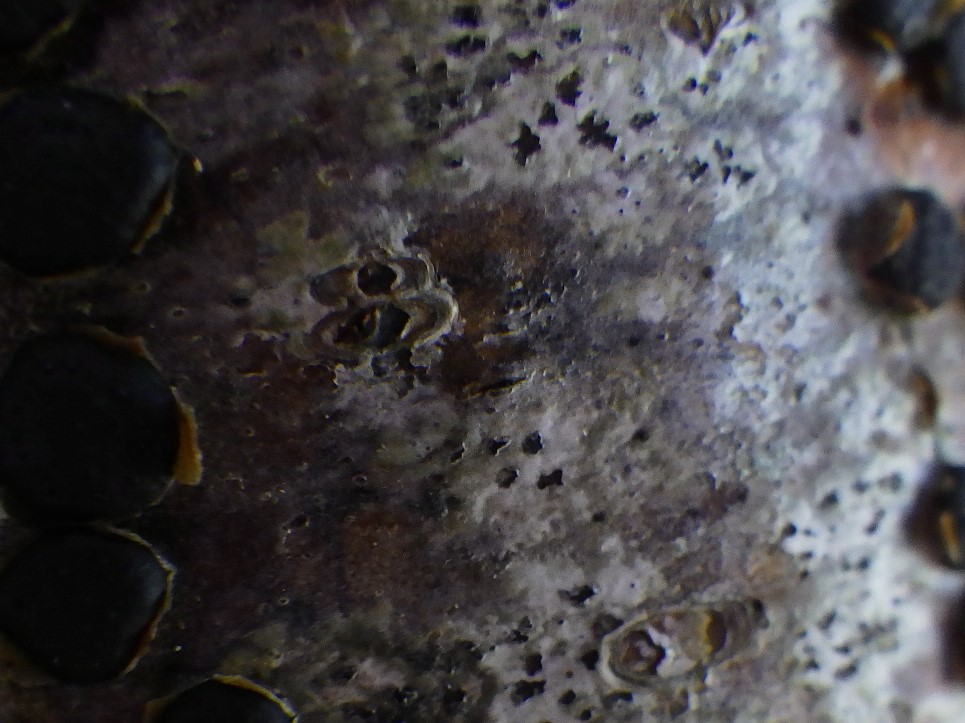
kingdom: Fungi
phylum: Ascomycota
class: Arthoniomycetes
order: Arthoniales
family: Arthoniaceae
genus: Arthonia
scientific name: Arthonia radiata
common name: stjerne-pletlav
